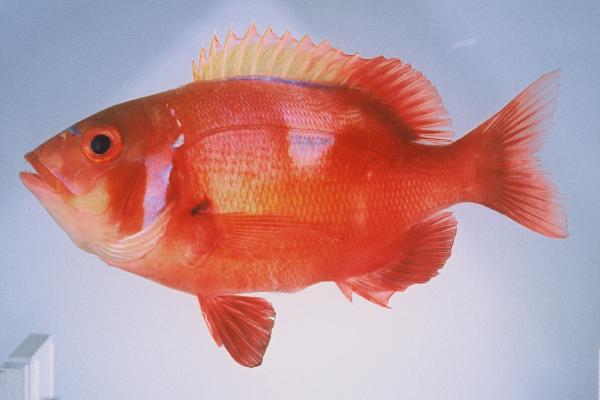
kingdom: Animalia
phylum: Chordata
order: Perciformes
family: Sparidae
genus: Chrysoblephus
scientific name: Chrysoblephus laticeps
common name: Roman seabream
